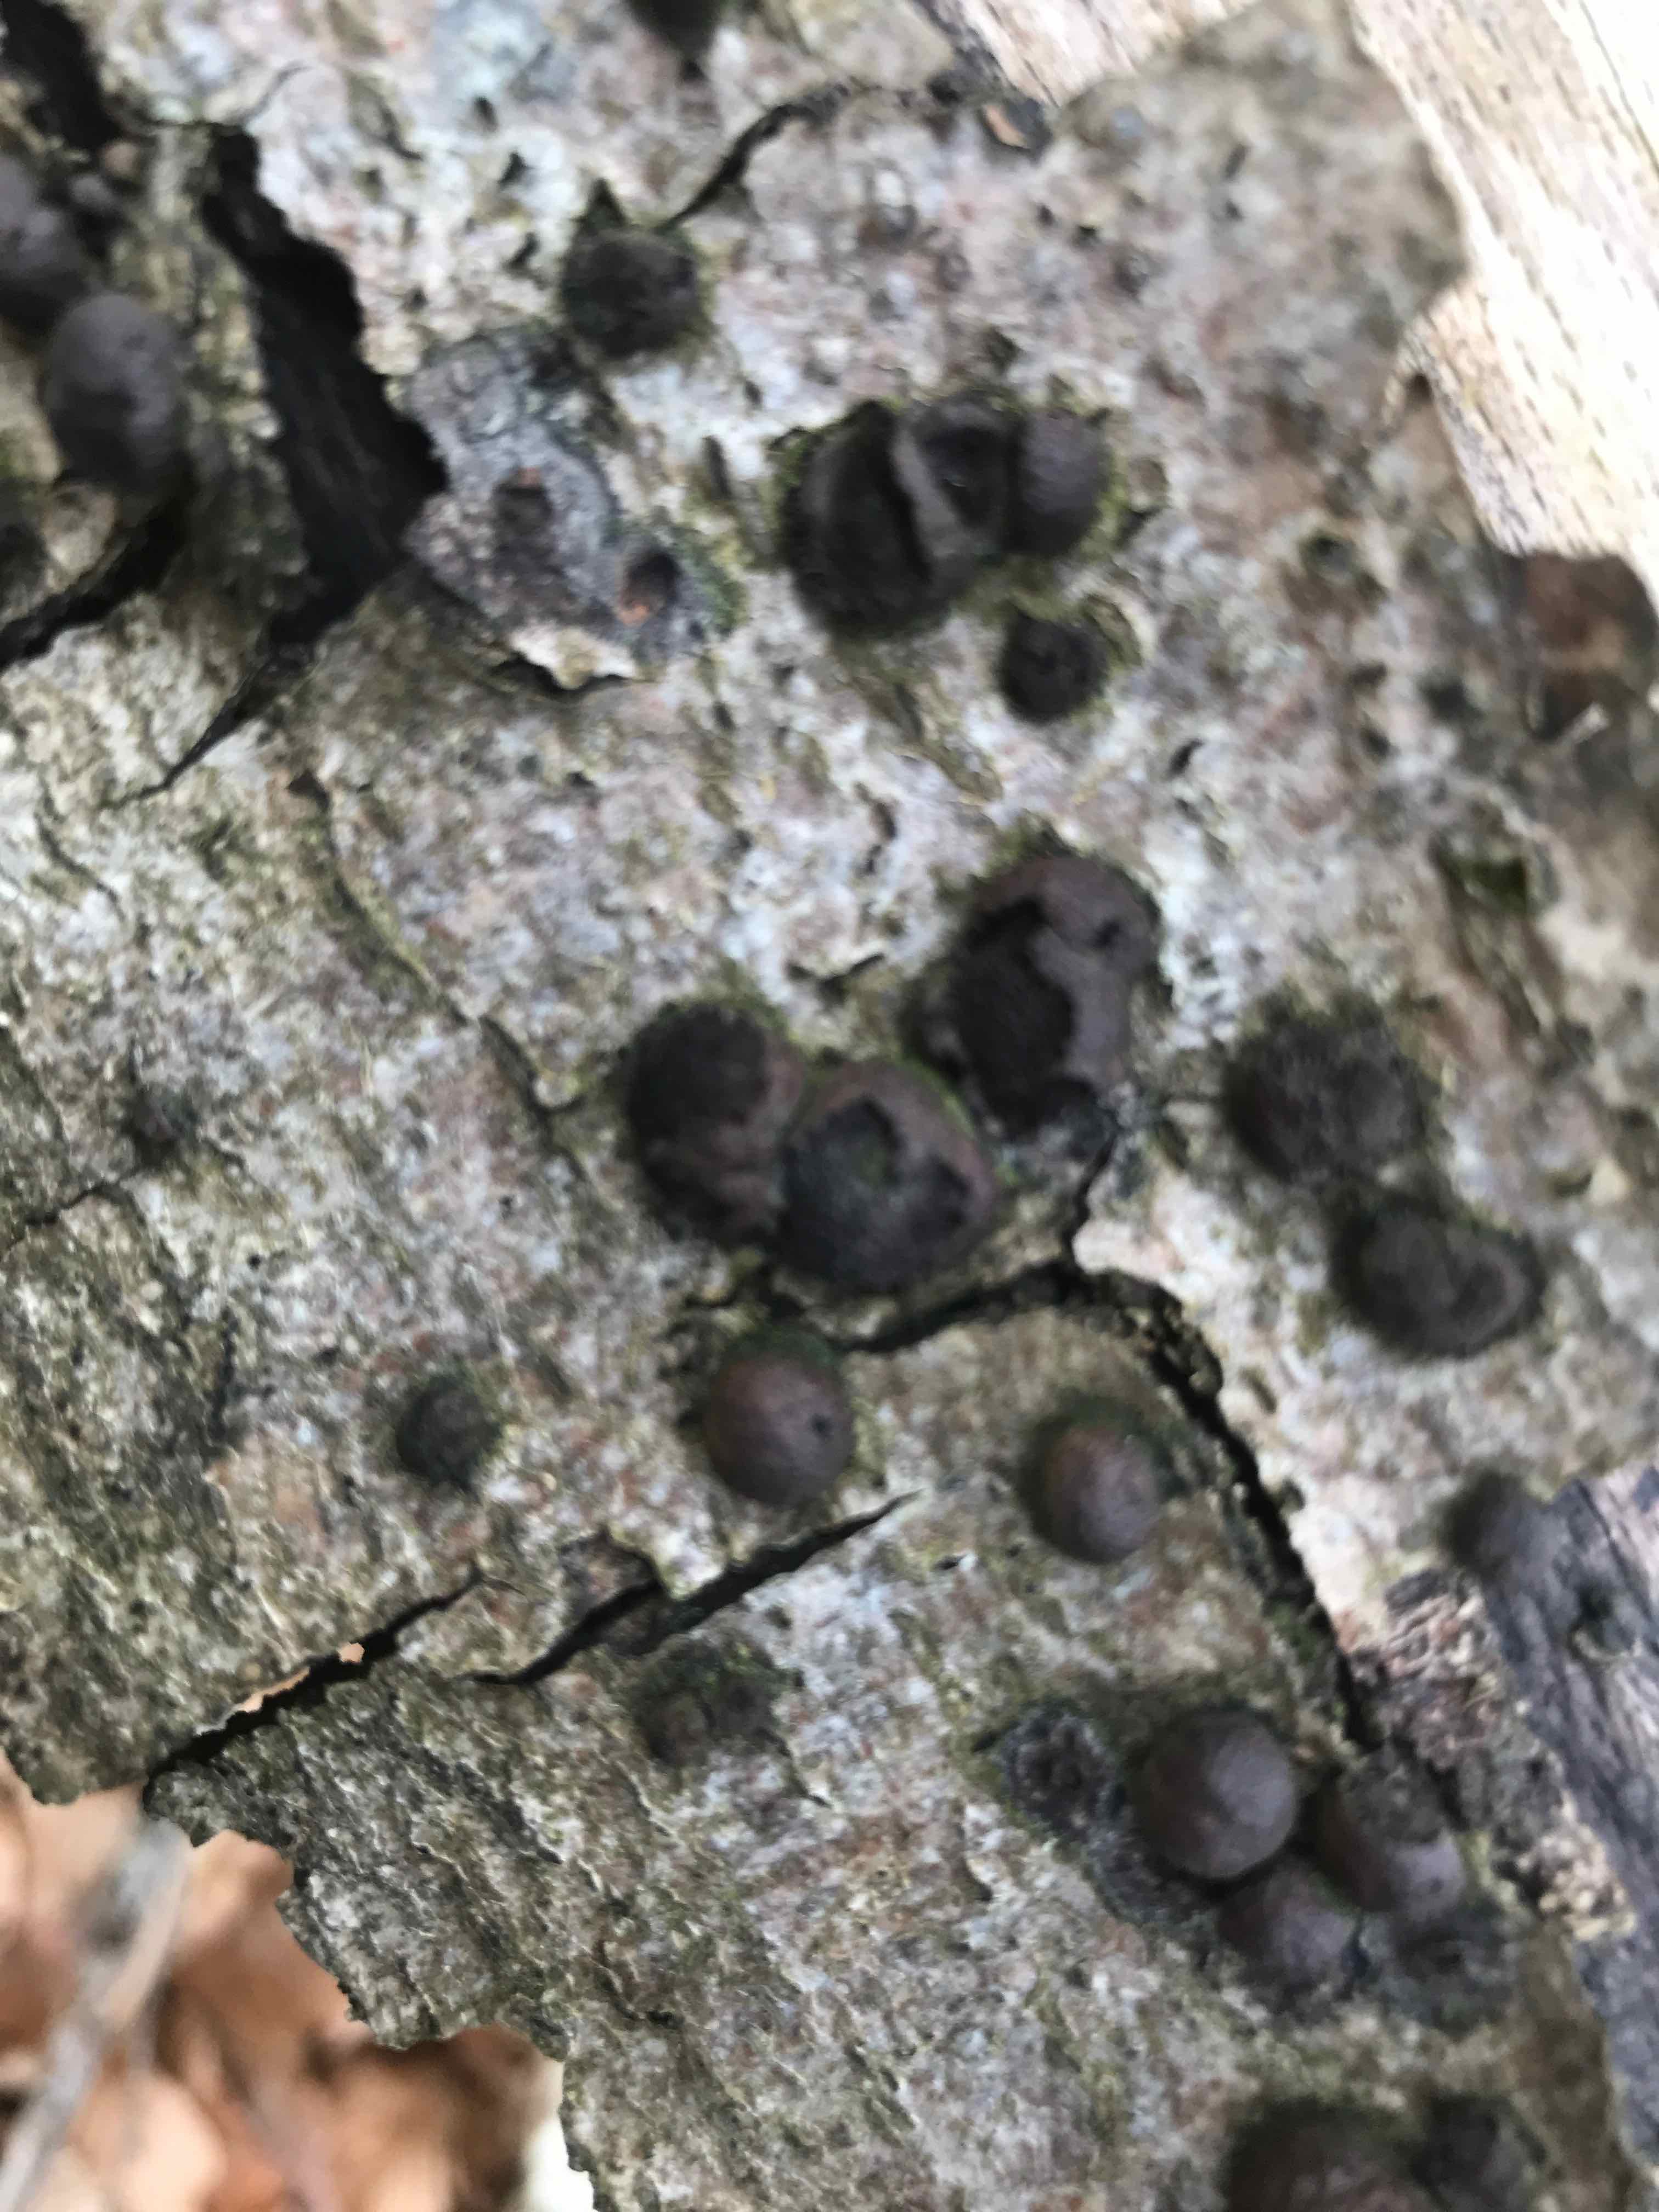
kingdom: Fungi
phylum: Ascomycota
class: Sordariomycetes
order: Xylariales
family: Hypoxylaceae
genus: Hypoxylon
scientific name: Hypoxylon fragiforme
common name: kuljordbær
